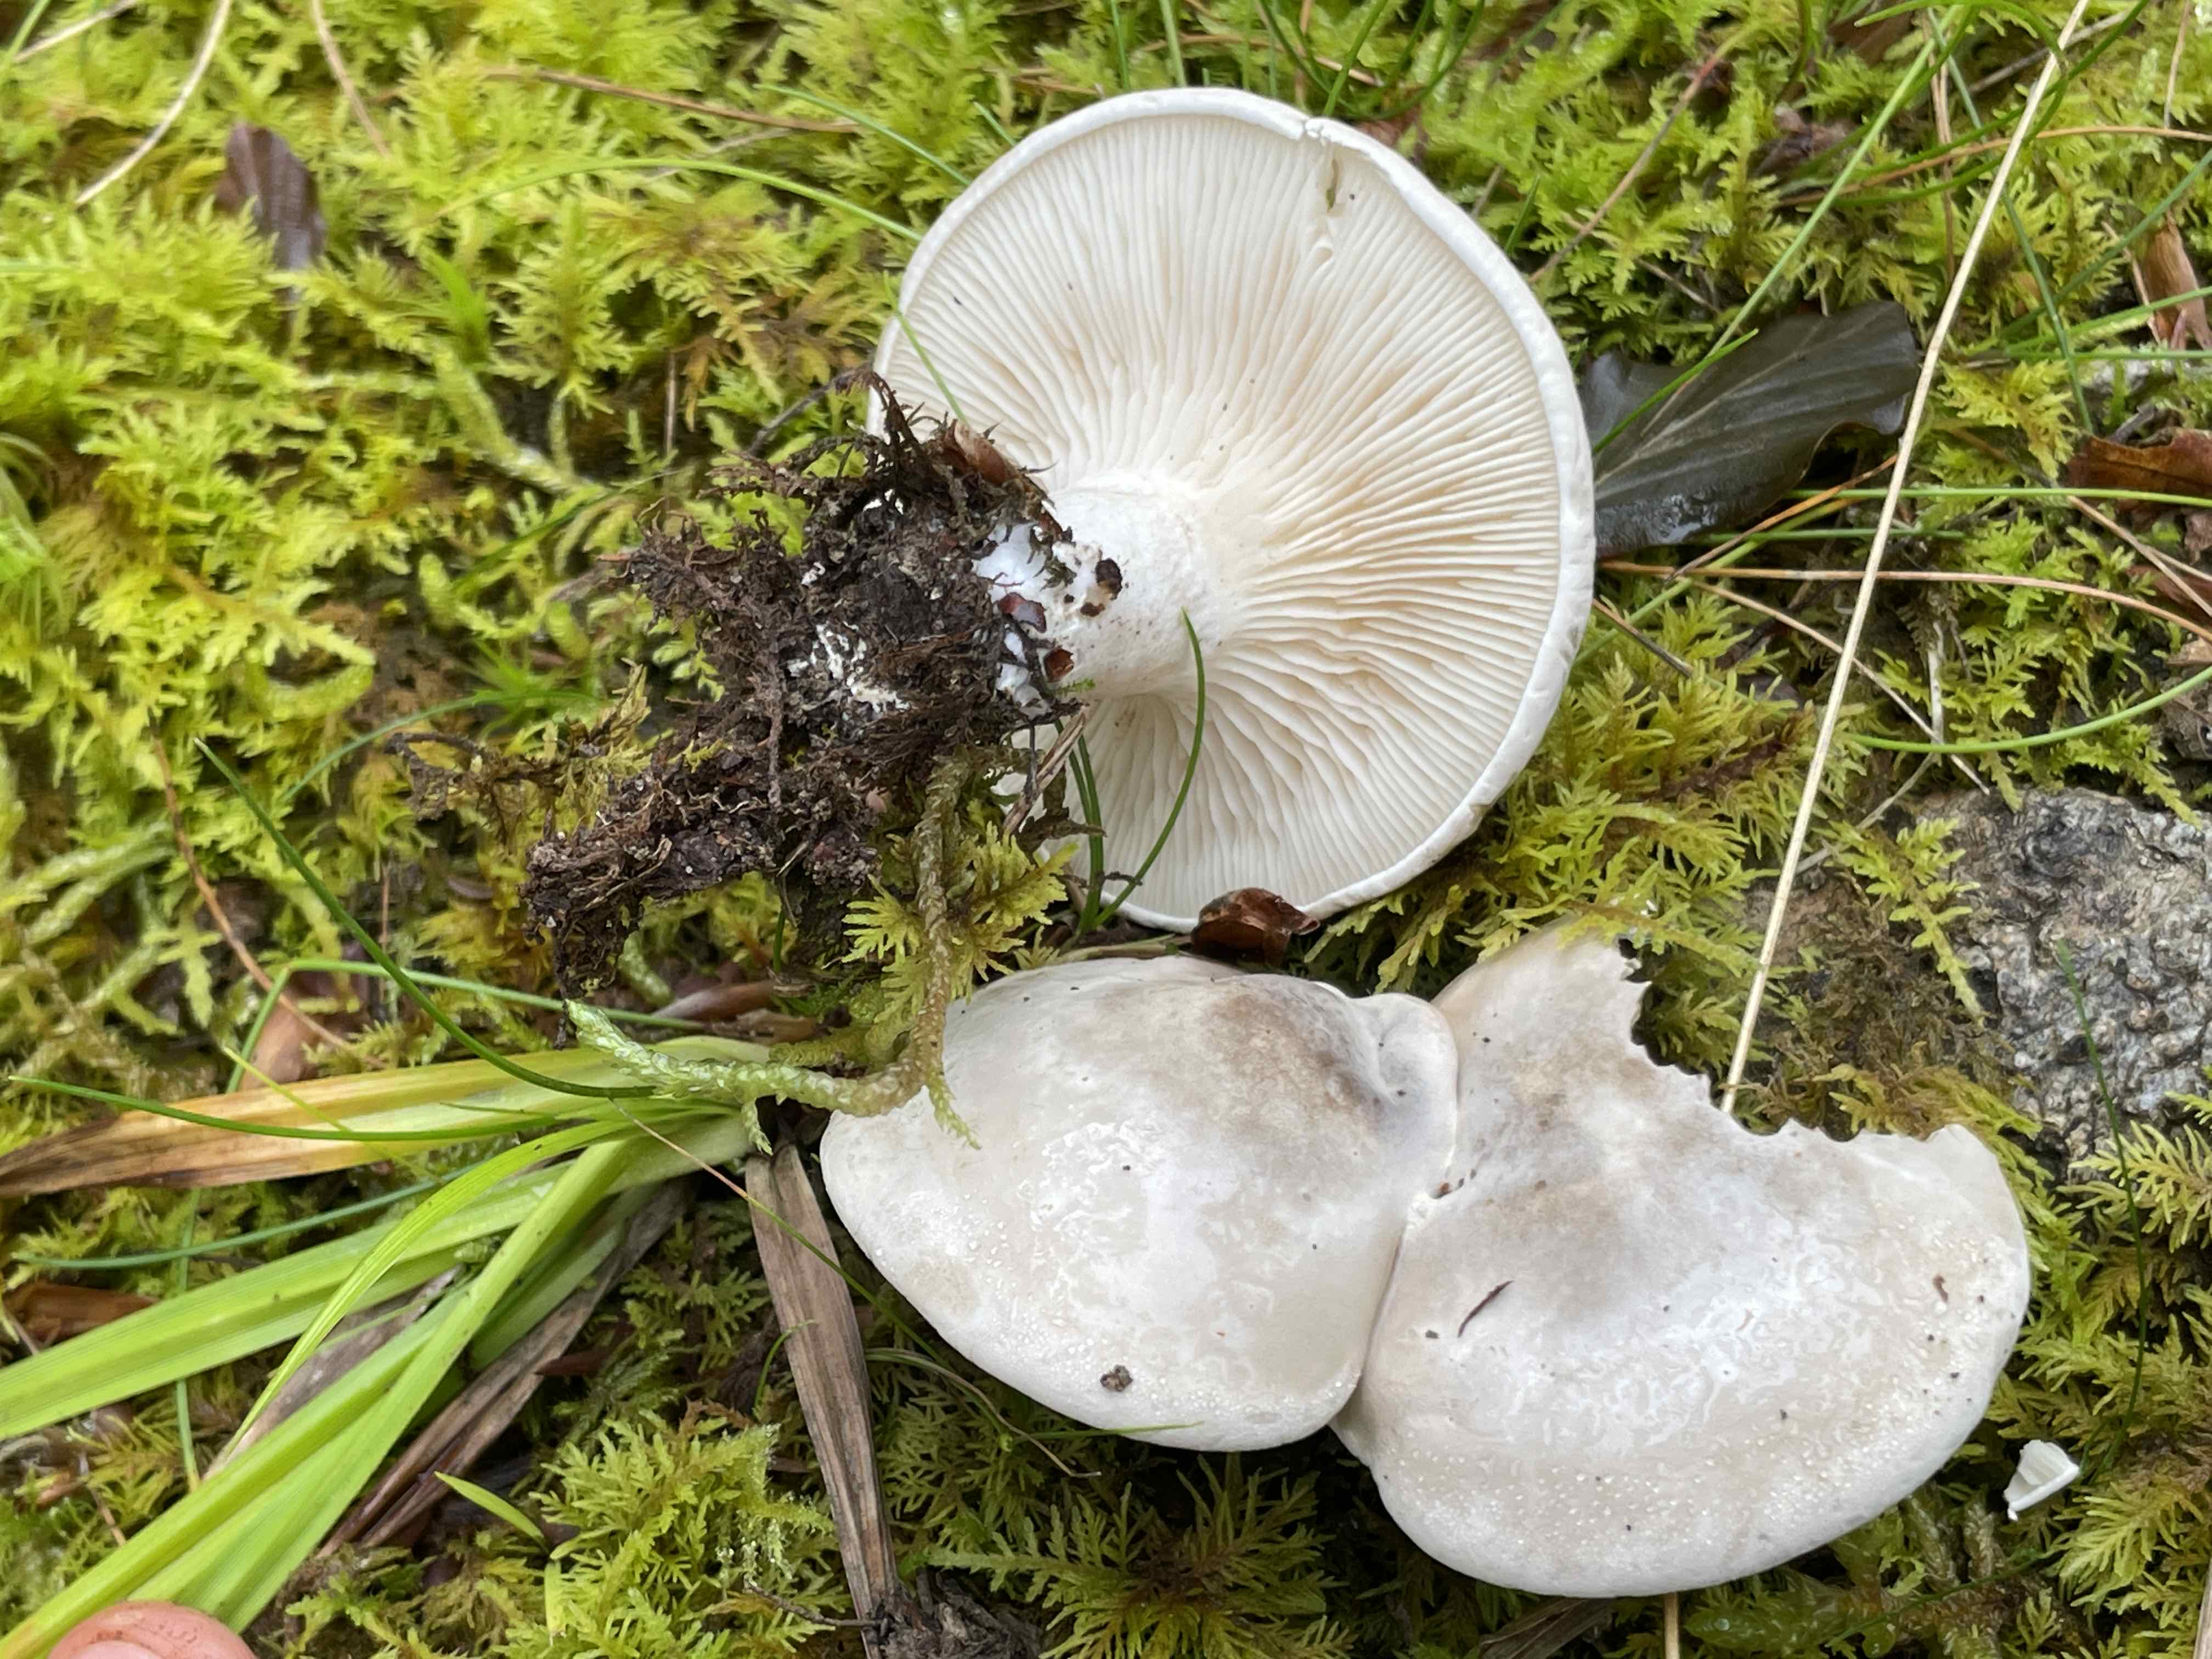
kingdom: Fungi
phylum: Basidiomycota
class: Agaricomycetes
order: Agaricales
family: Entolomataceae
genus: Clitopilus
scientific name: Clitopilus prunulus
